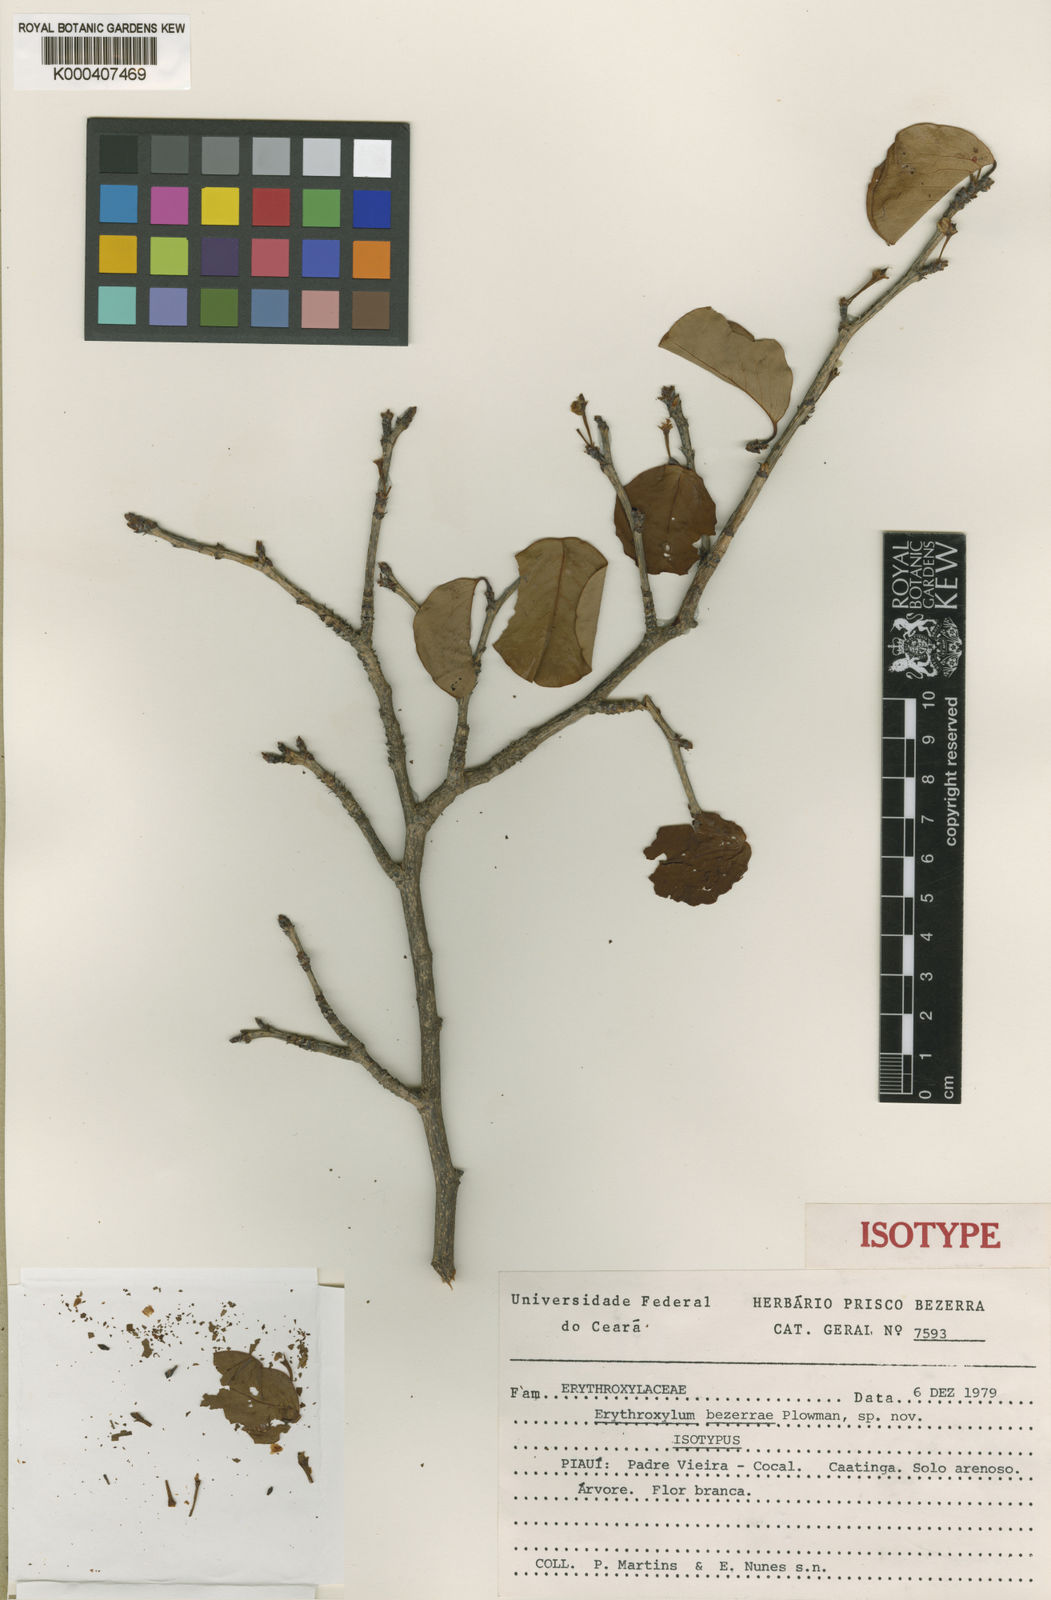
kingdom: Plantae
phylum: Tracheophyta
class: Magnoliopsida
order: Malpighiales
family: Erythroxylaceae
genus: Erythroxylum
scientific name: Erythroxylum bezerrae
